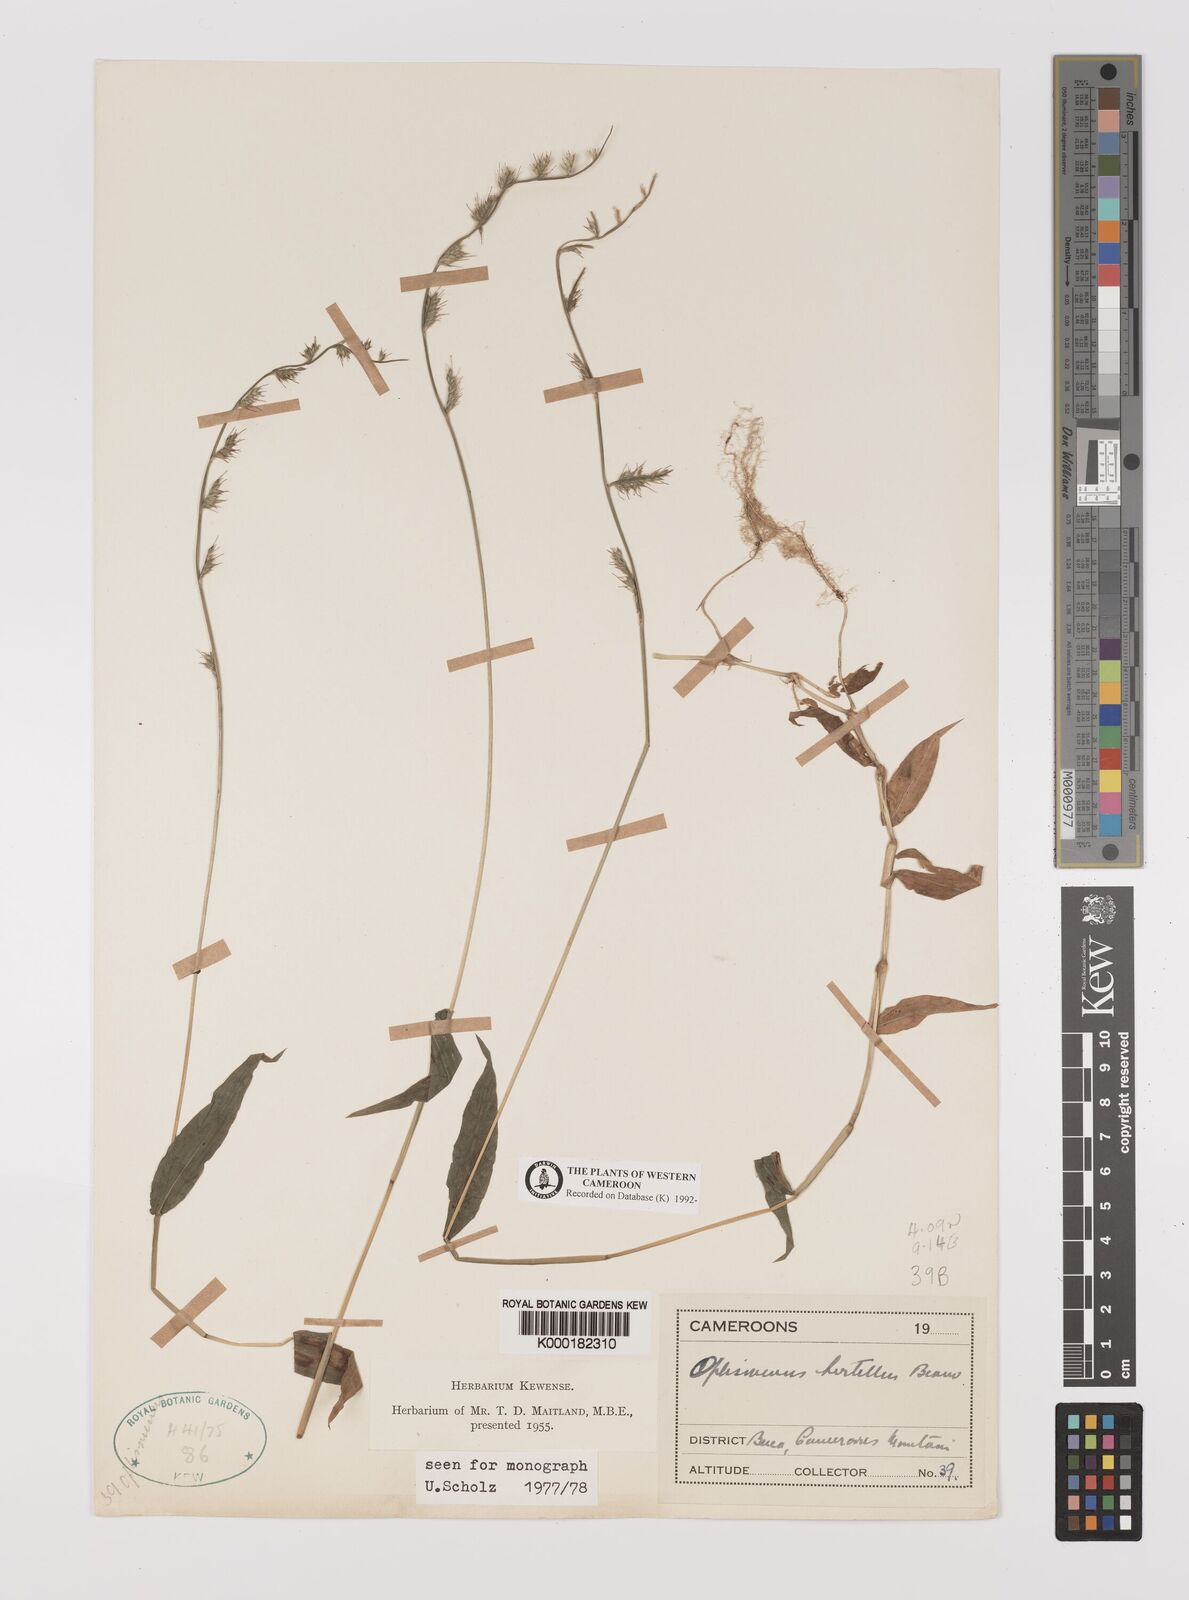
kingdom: Plantae
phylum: Tracheophyta
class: Liliopsida
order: Poales
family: Poaceae
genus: Oplismenus
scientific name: Oplismenus hirtellus
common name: Basketgrass
